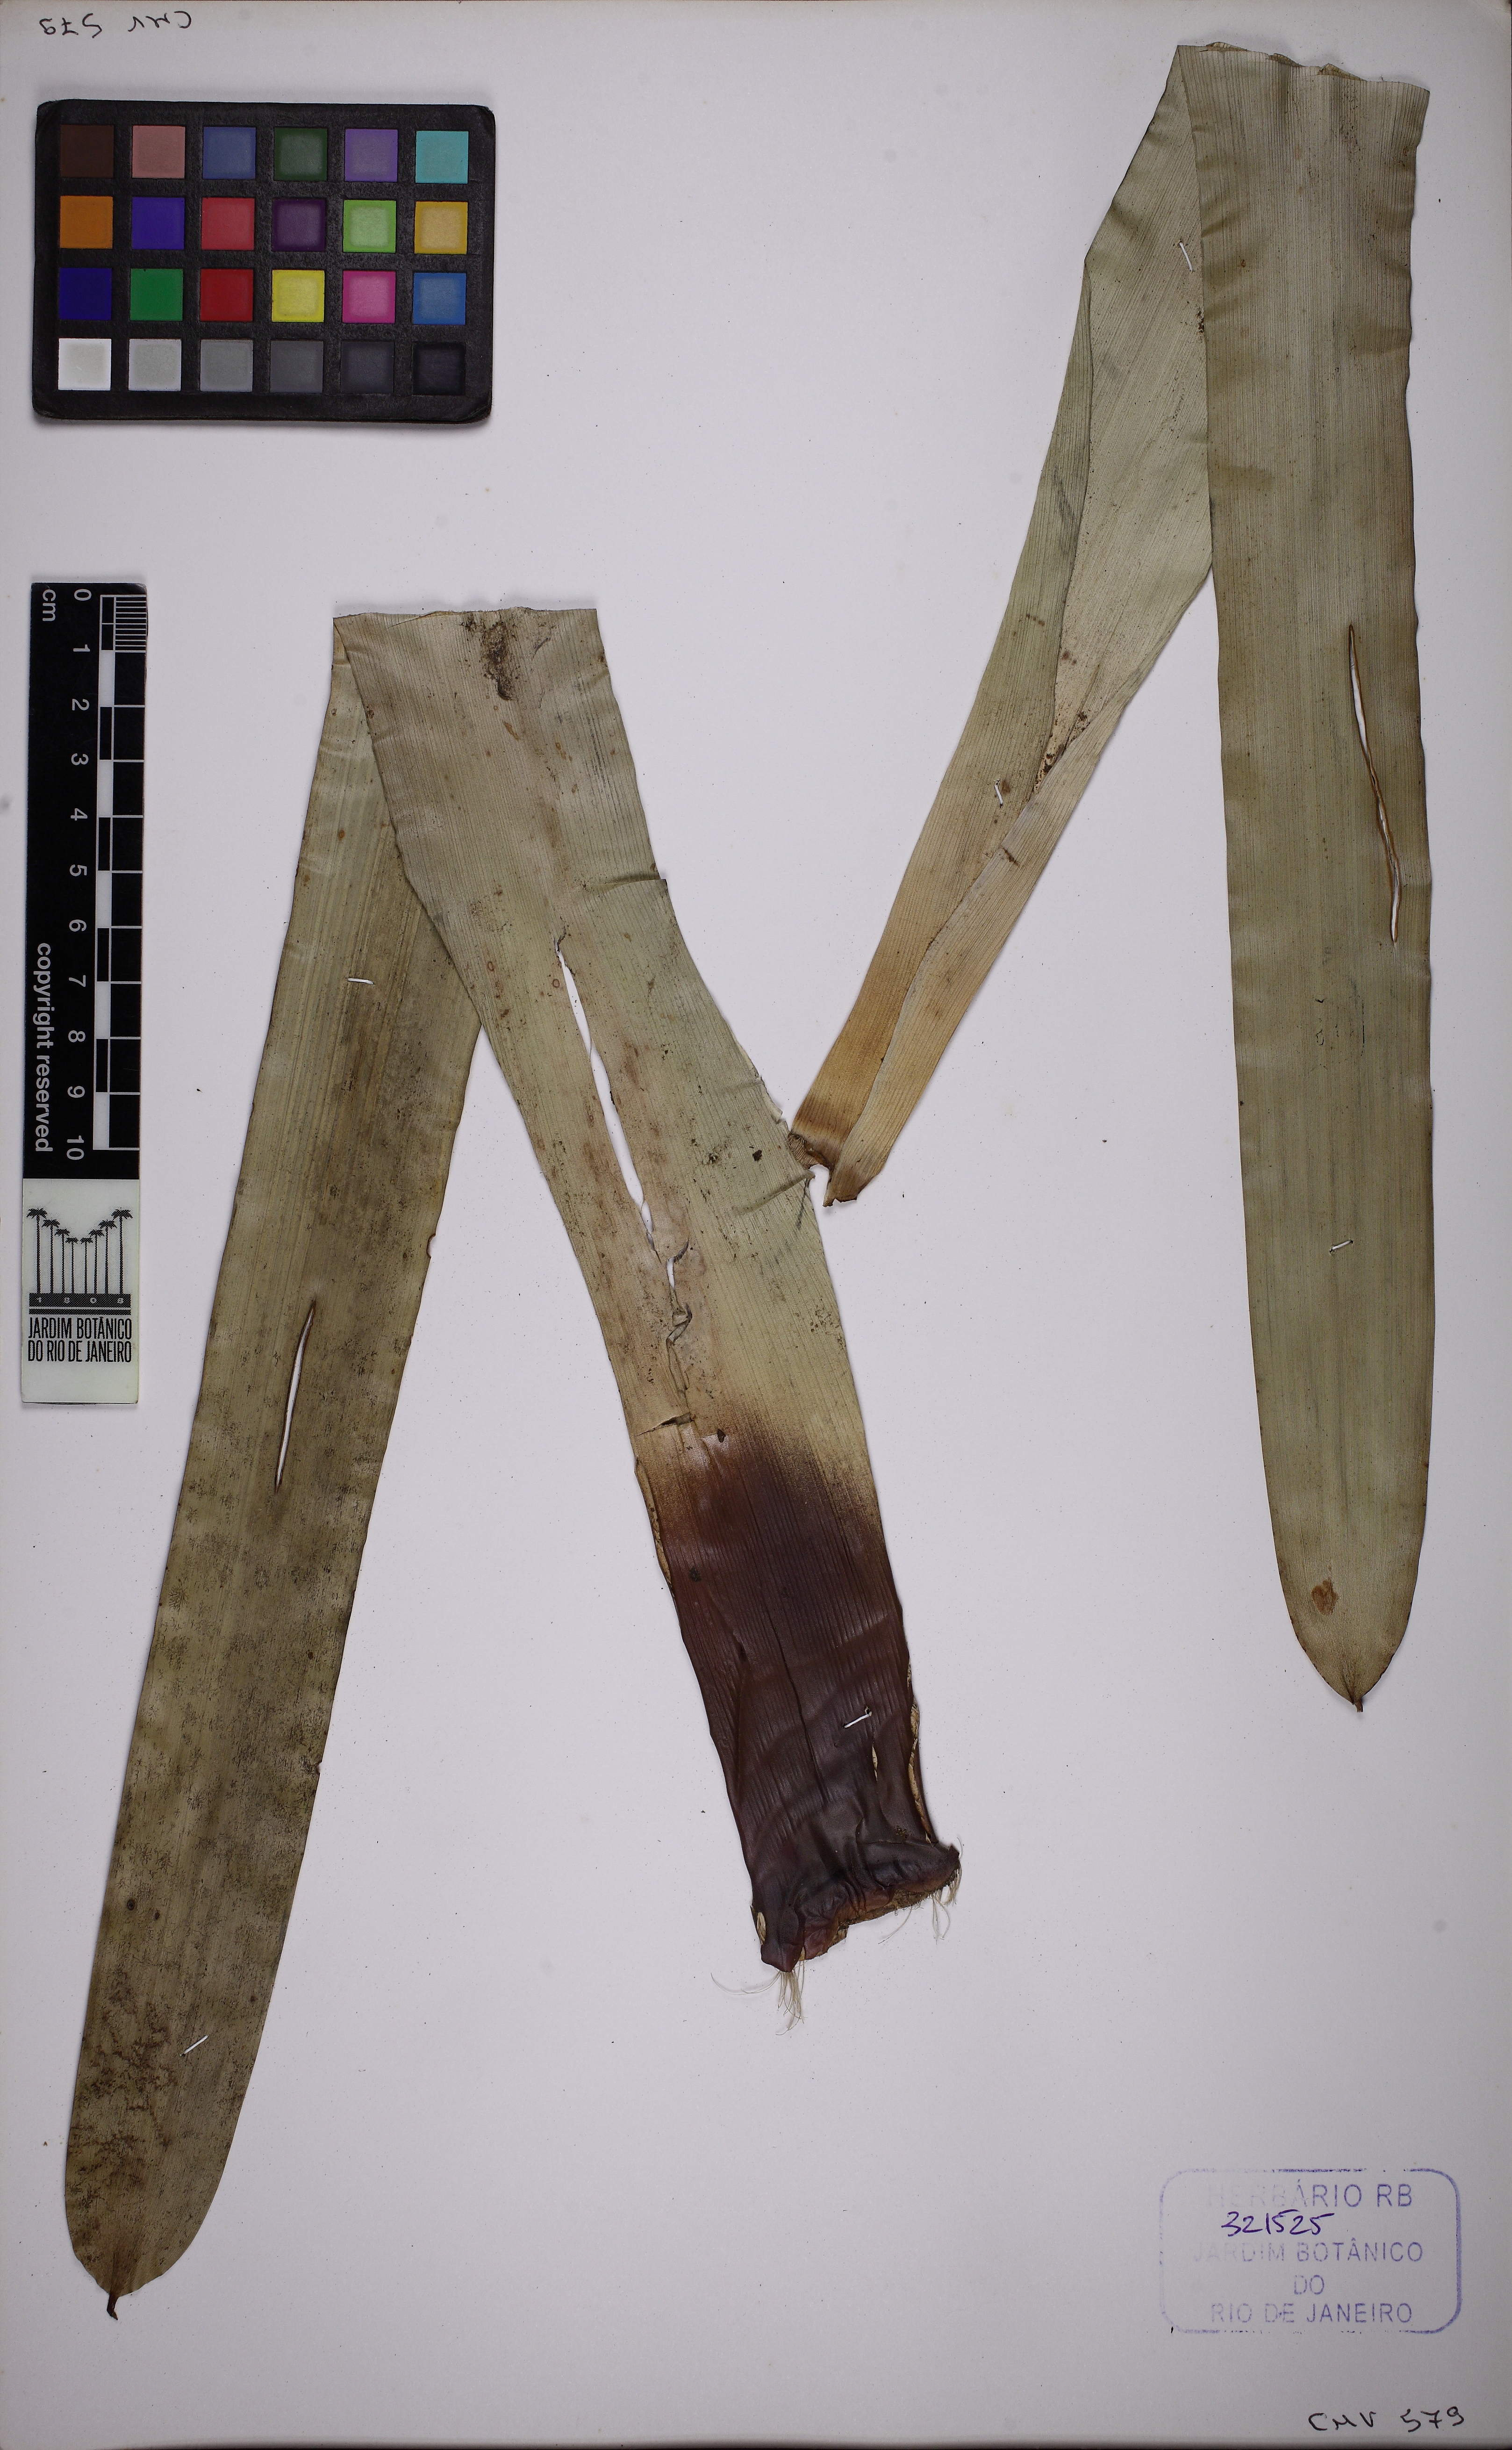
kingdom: Plantae
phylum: Tracheophyta
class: Liliopsida
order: Poales
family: Bromeliaceae
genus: Vriesea
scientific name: Vriesea longicaulis
